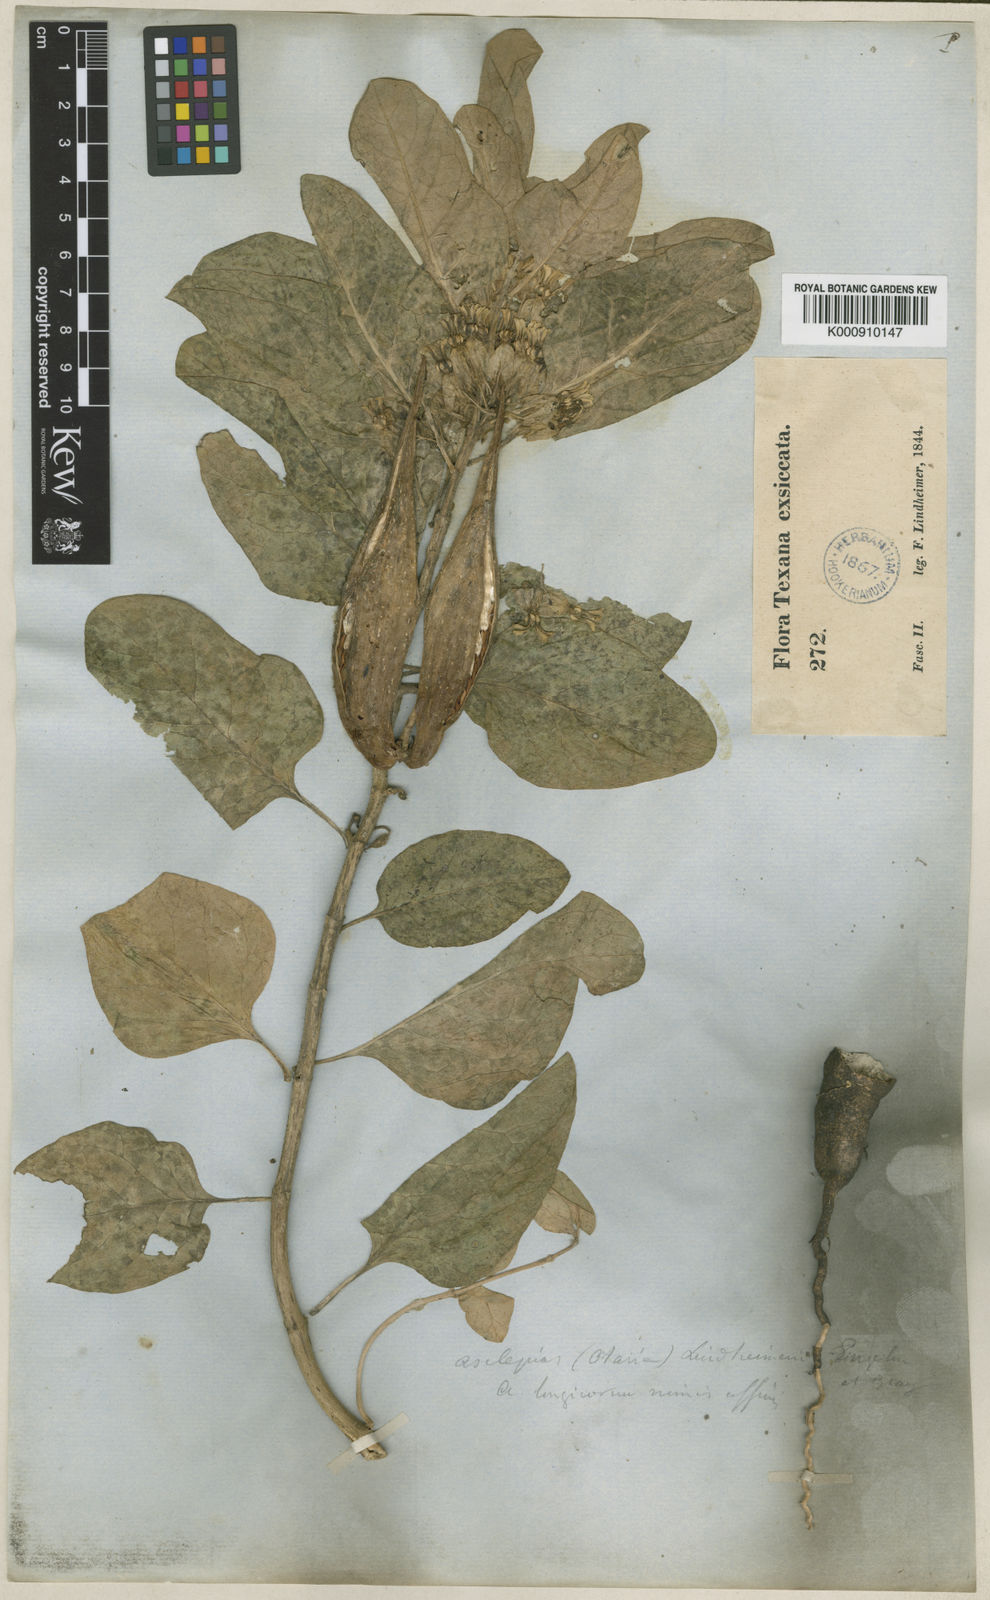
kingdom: Plantae
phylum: Tracheophyta
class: Magnoliopsida
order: Gentianales
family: Apocynaceae
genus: Asclepias
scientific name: Asclepias oenotheroides
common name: Zizotes milkweed
